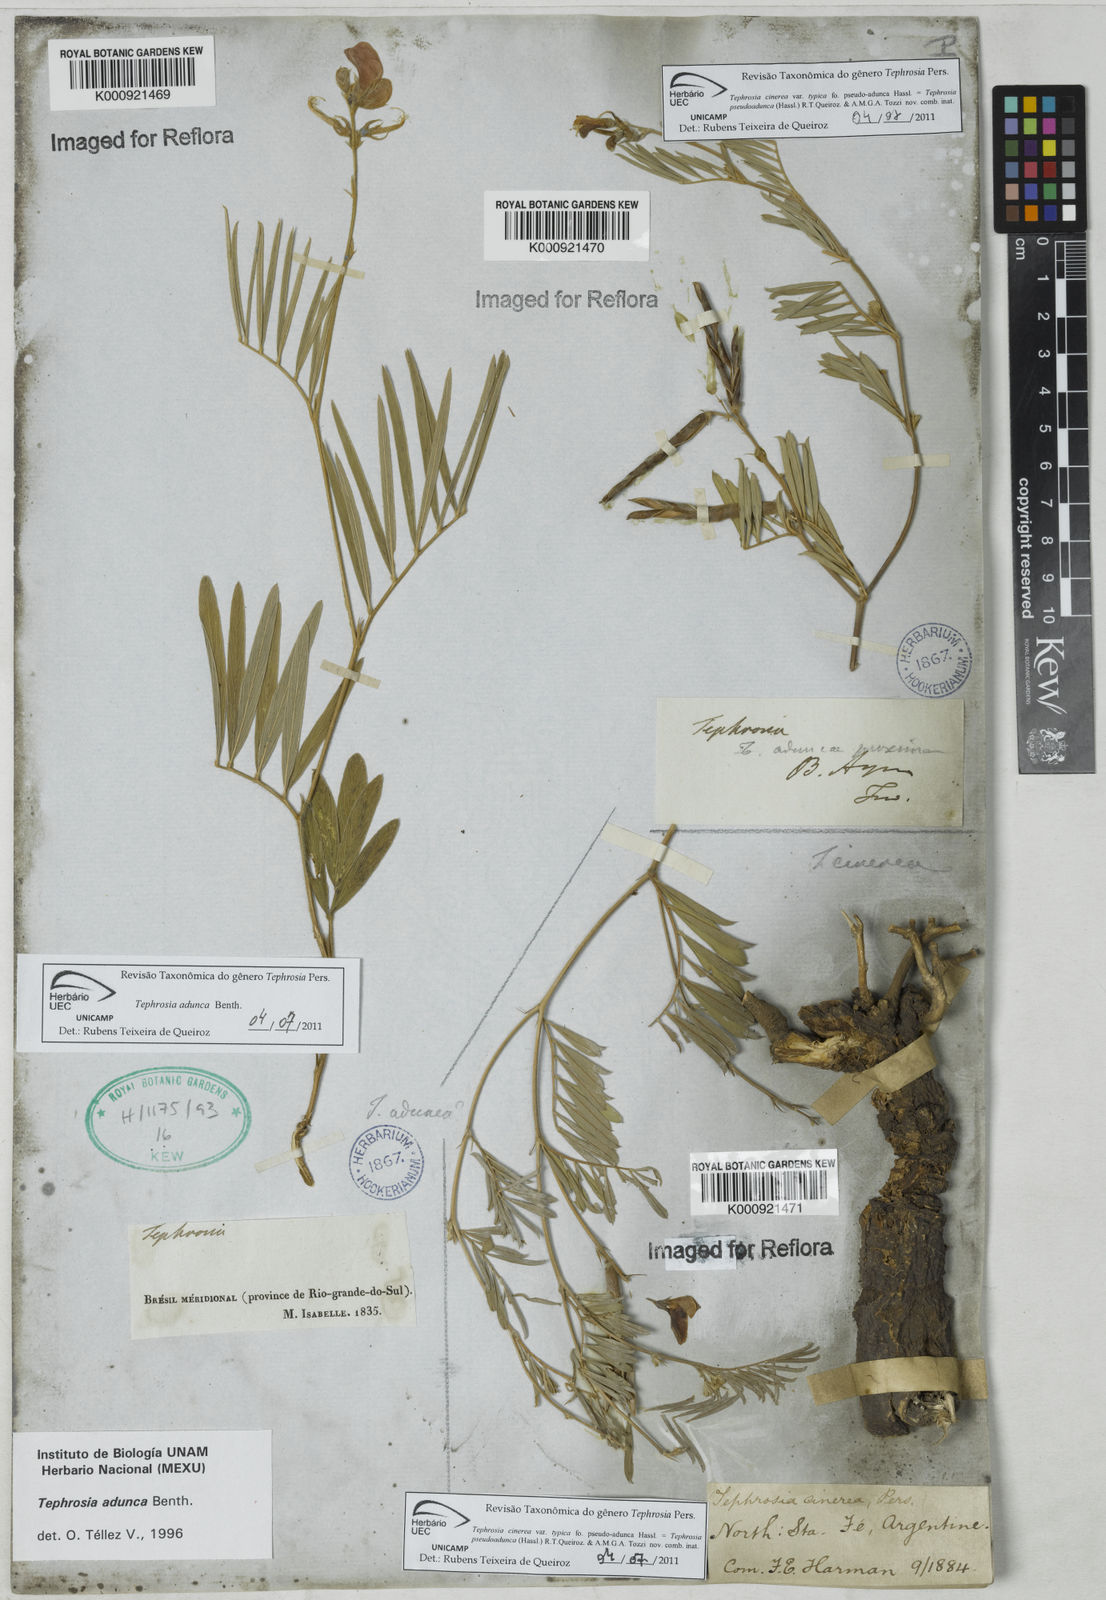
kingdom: Plantae
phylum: Tracheophyta
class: Magnoliopsida
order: Fabales
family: Fabaceae
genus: Tephrosia
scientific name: Tephrosia adunca
